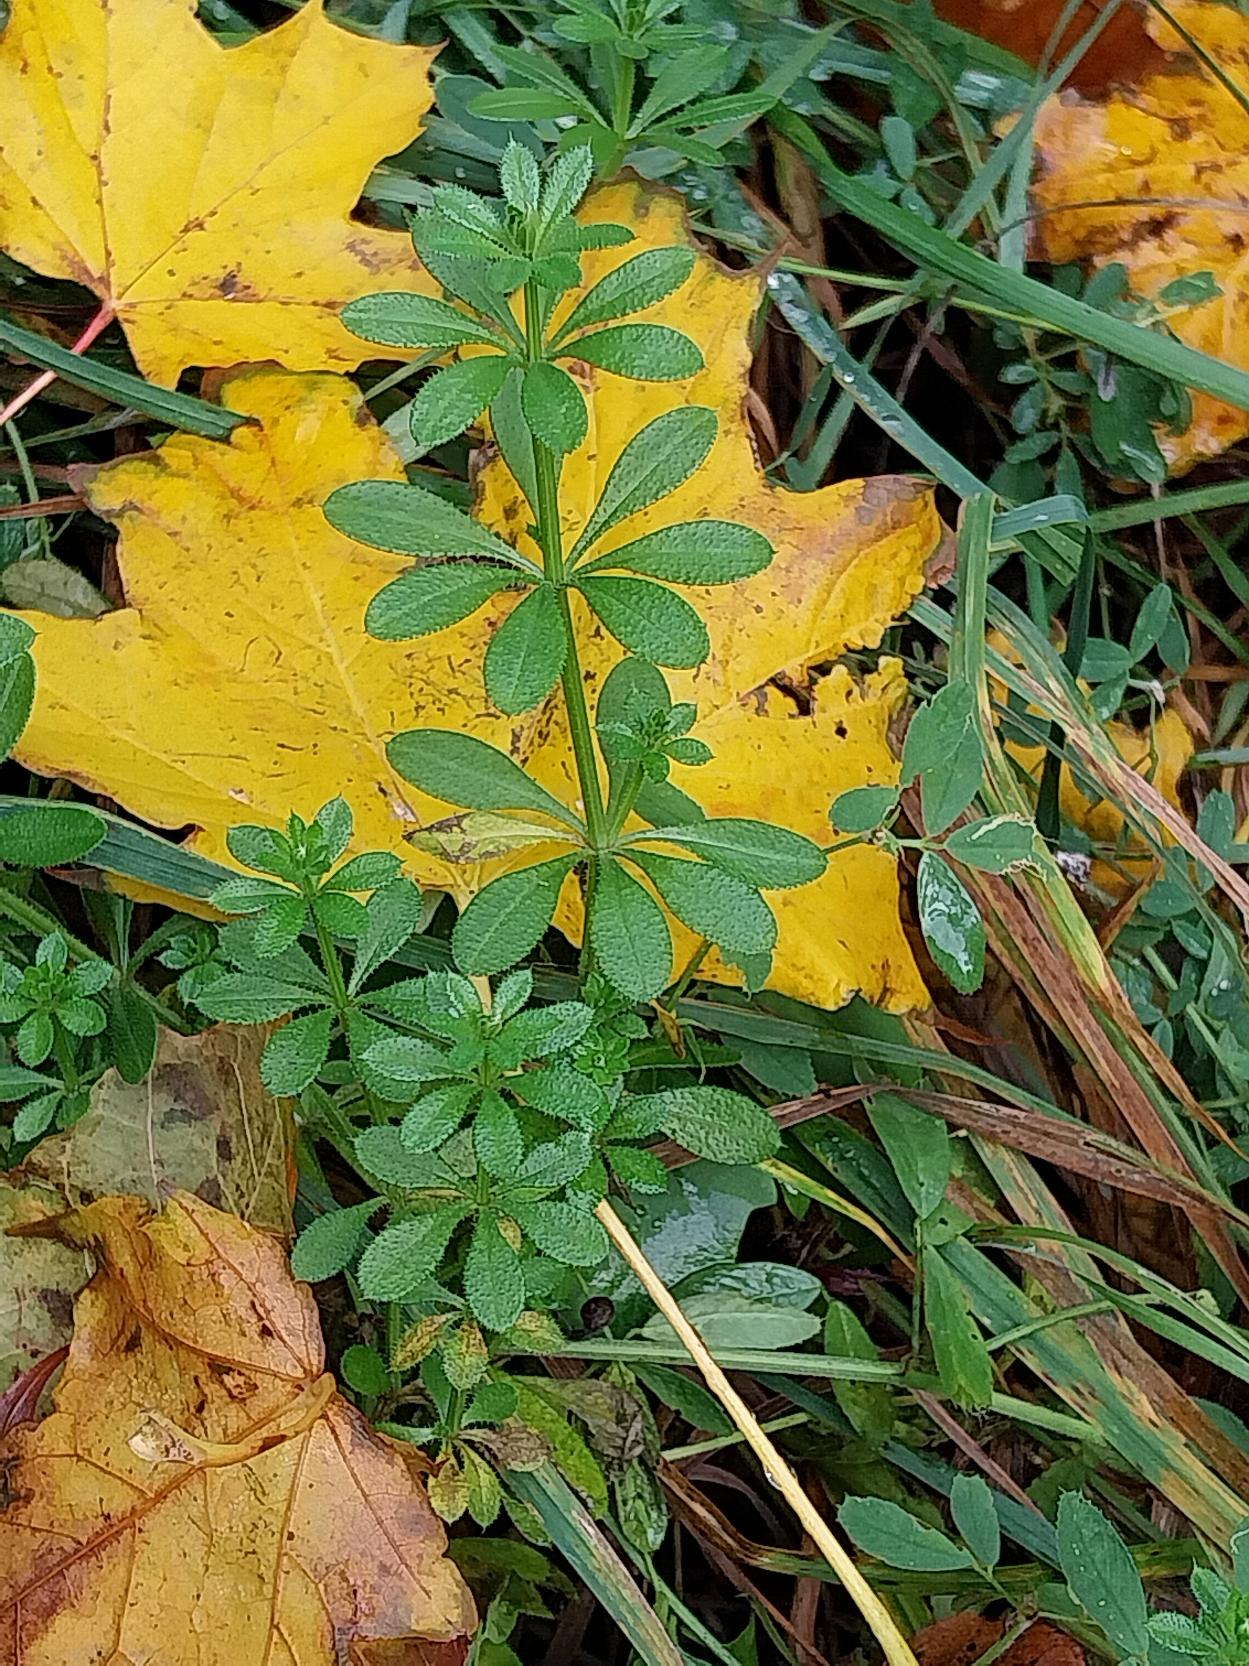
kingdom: Plantae
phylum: Tracheophyta
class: Magnoliopsida
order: Gentianales
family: Rubiaceae
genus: Galium
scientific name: Galium aparine
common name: Burre-snerre
